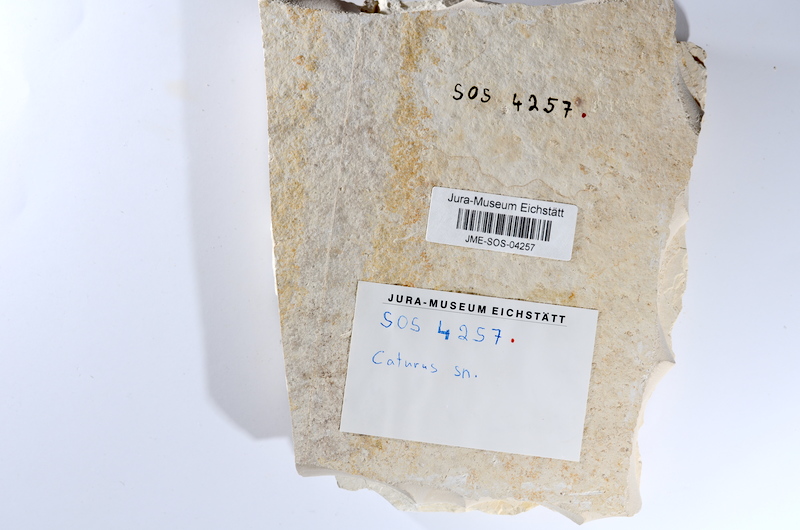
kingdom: Animalia
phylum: Chordata
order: Amiiformes
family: Caturidae
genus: Caturus
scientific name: Caturus
